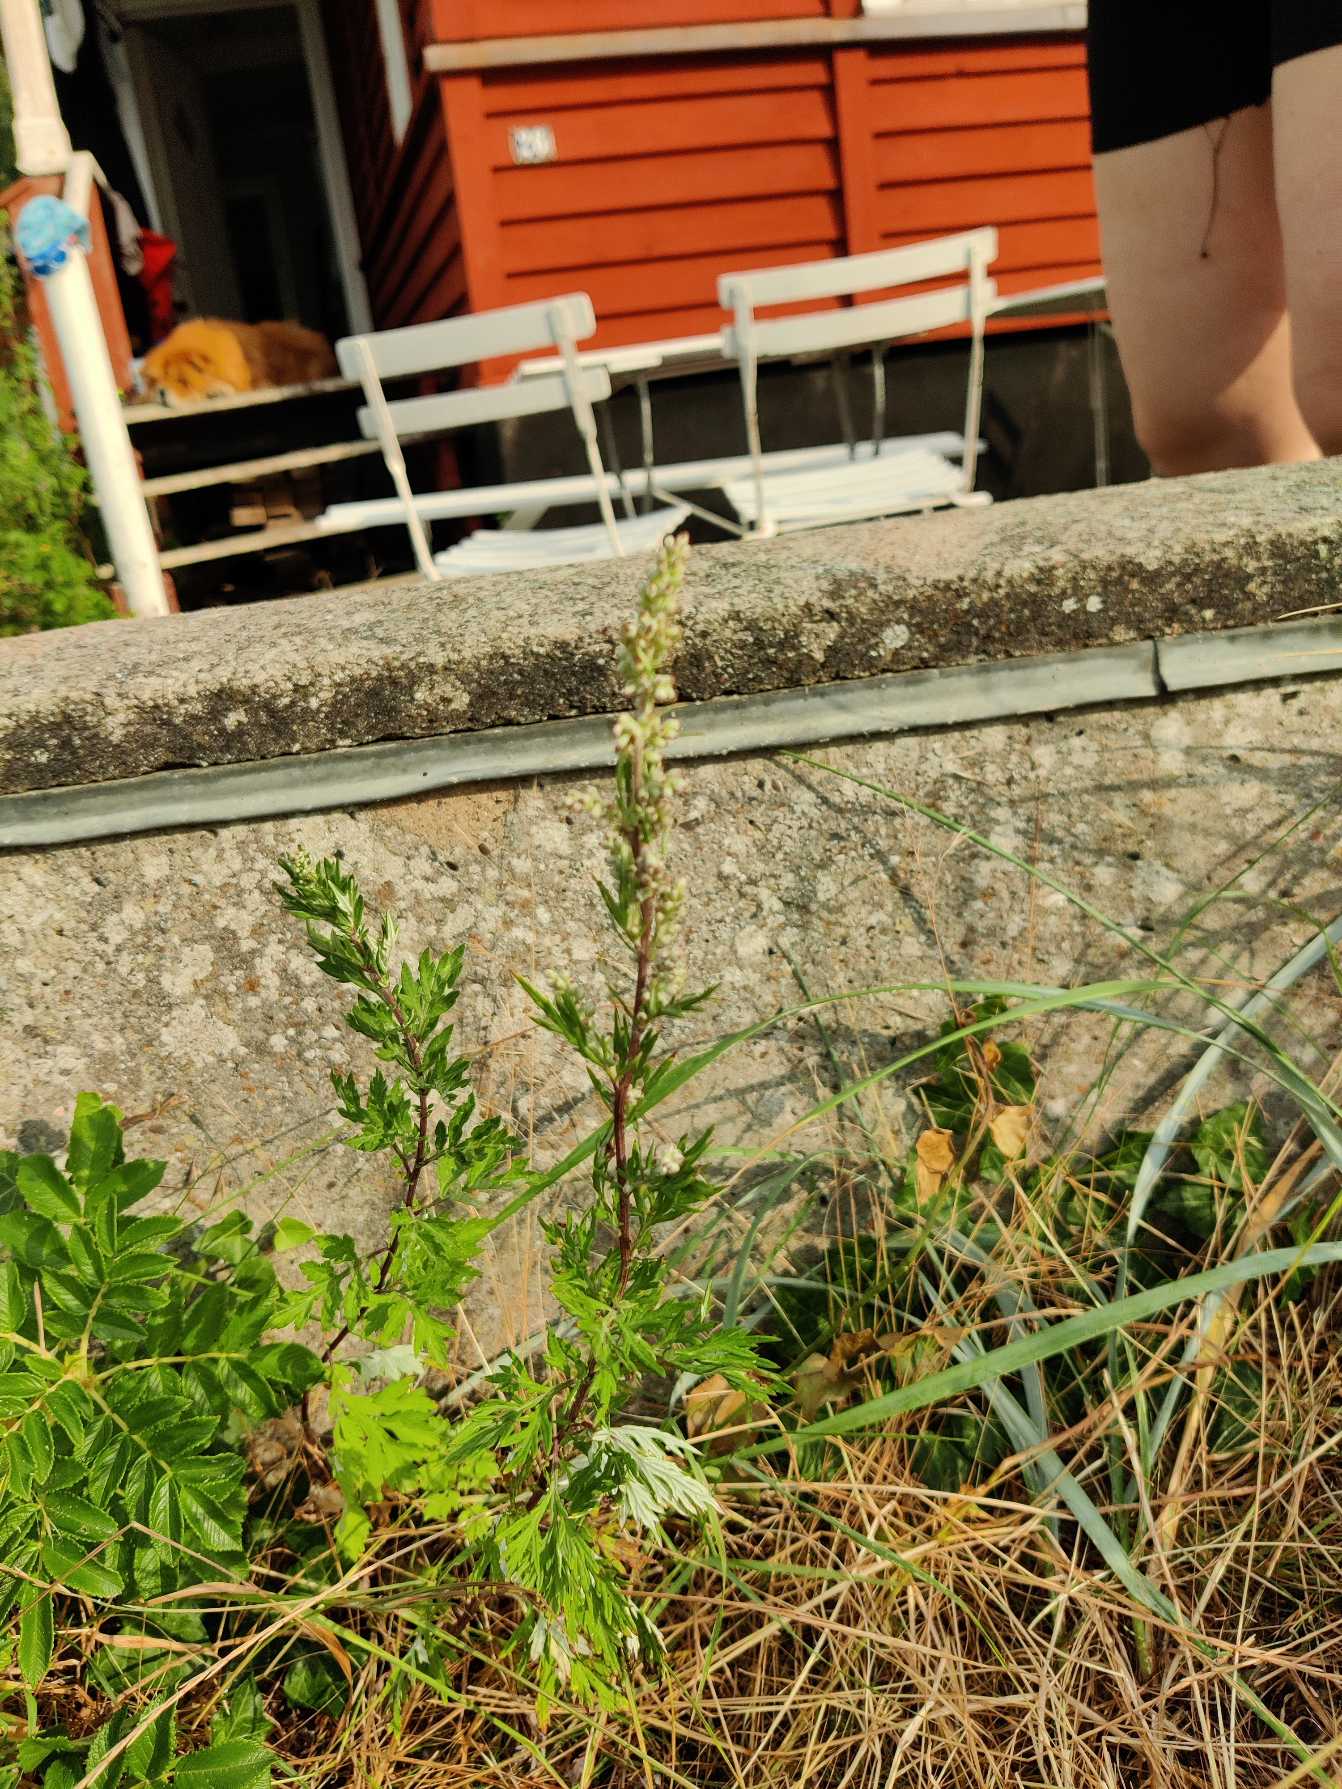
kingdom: Plantae
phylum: Tracheophyta
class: Magnoliopsida
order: Asterales
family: Asteraceae
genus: Artemisia
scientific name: Artemisia vulgaris
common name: Grå-bynke
